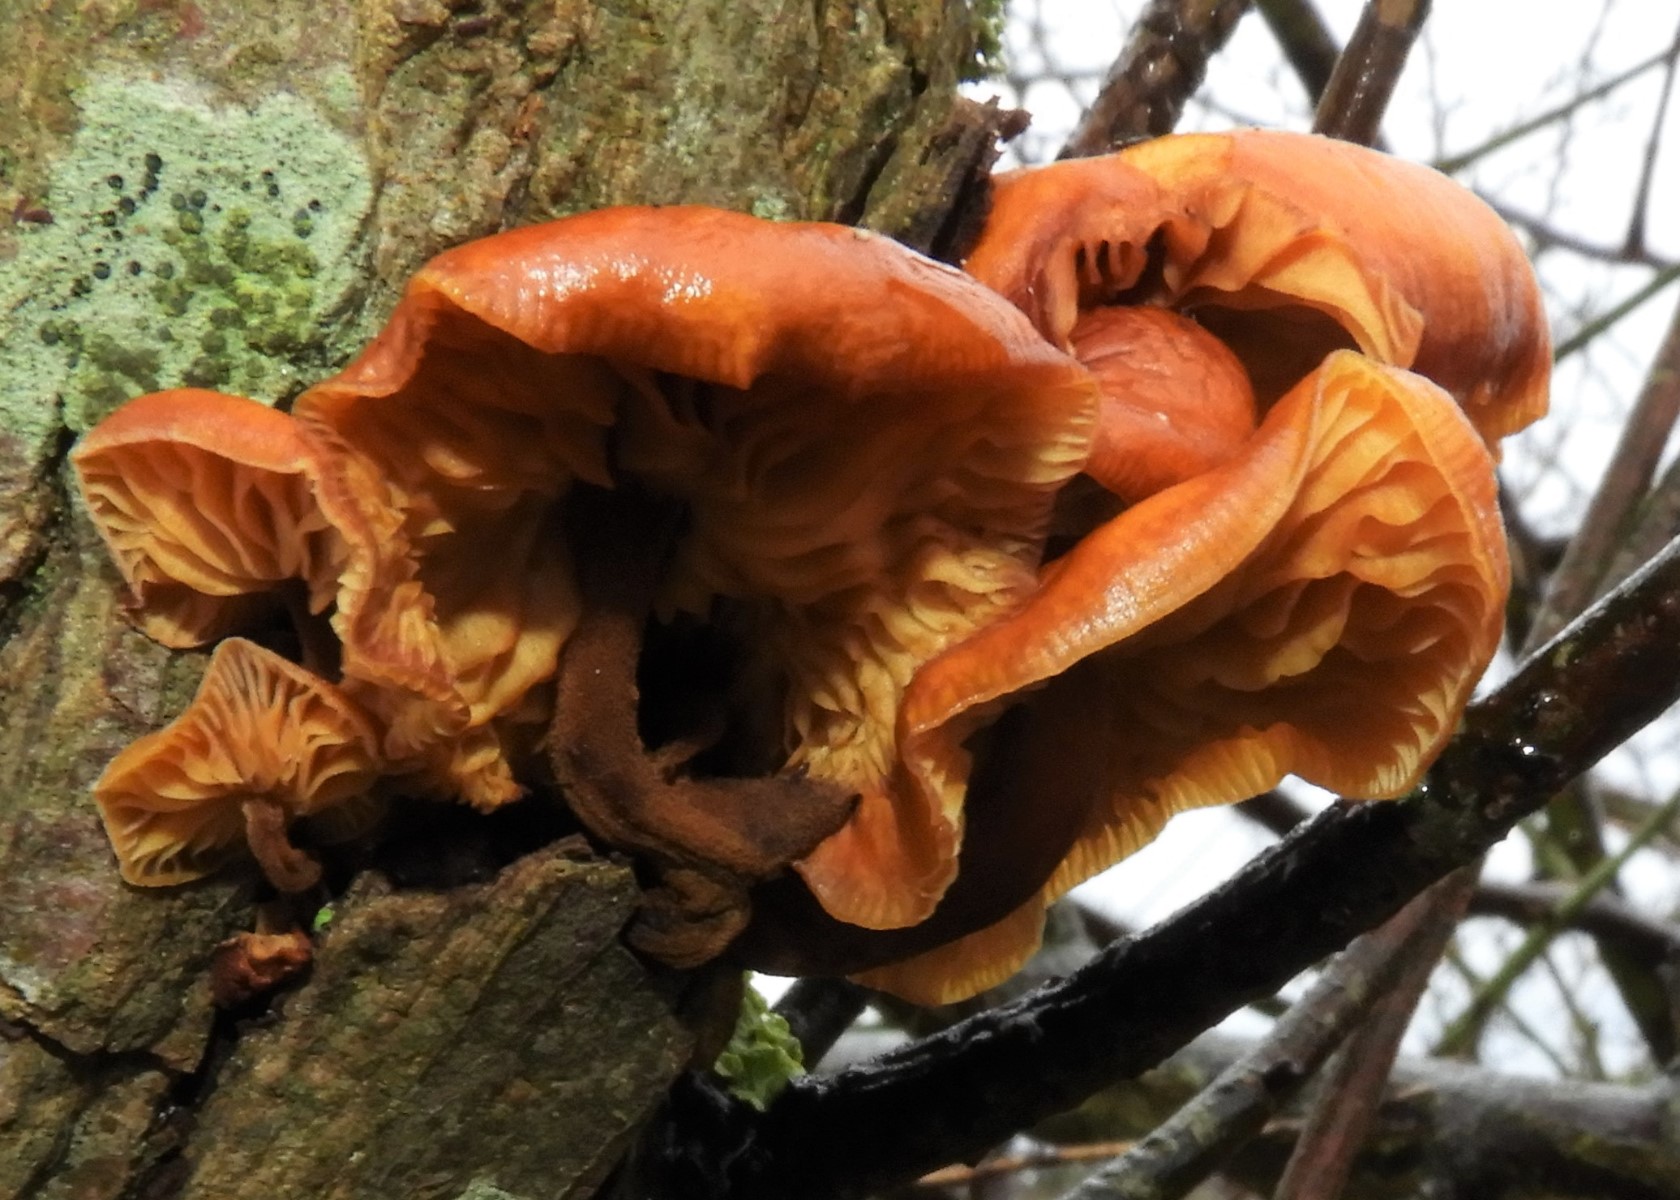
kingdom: Fungi
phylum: Basidiomycota
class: Agaricomycetes
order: Agaricales
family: Physalacriaceae
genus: Flammulina
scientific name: Flammulina velutipes
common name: gul fløjlsfod
